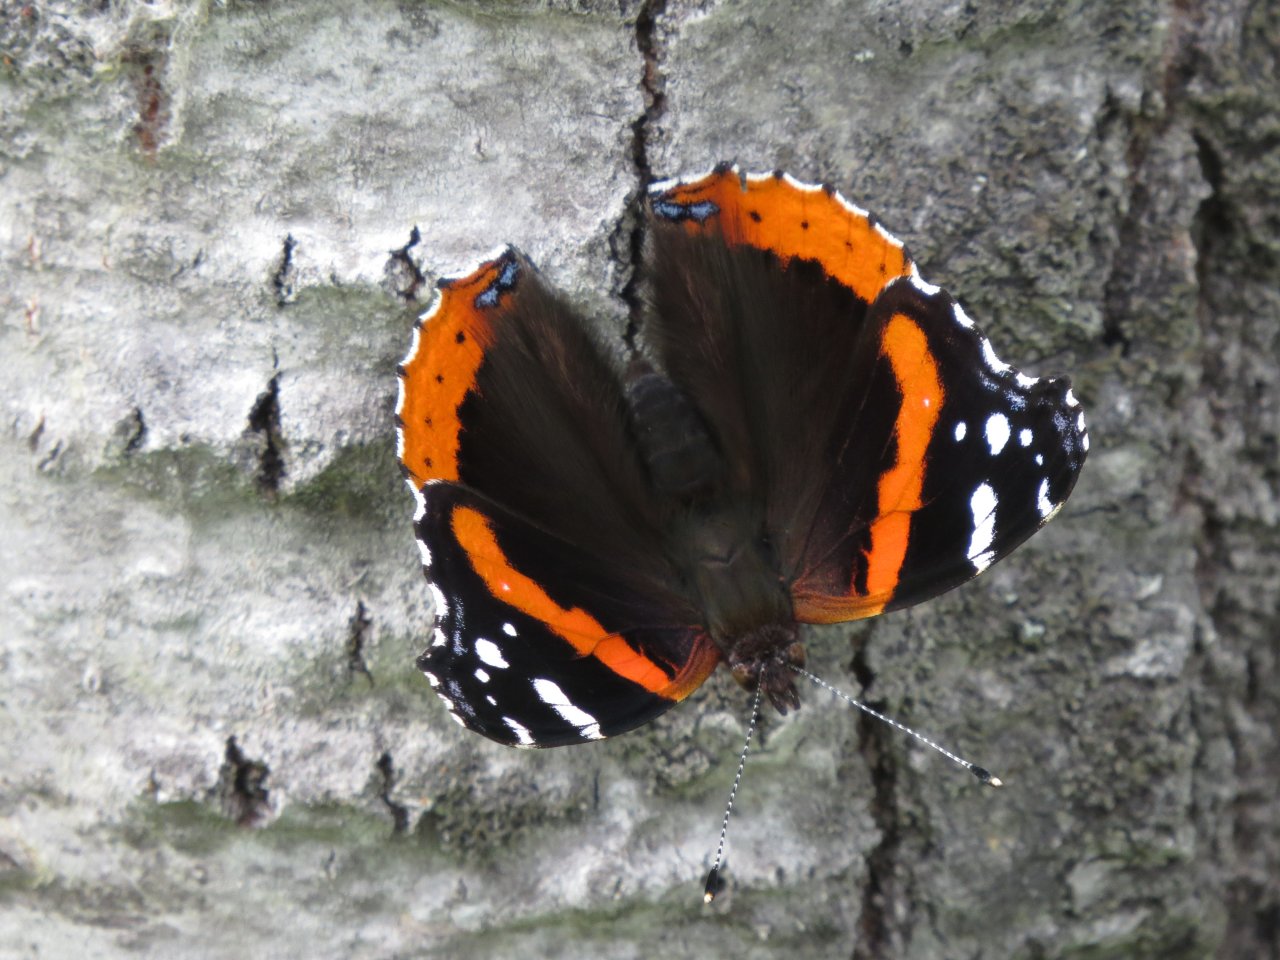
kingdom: Animalia
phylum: Arthropoda
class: Insecta
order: Lepidoptera
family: Nymphalidae
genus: Vanessa
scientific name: Vanessa atalanta
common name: Red Admiral
